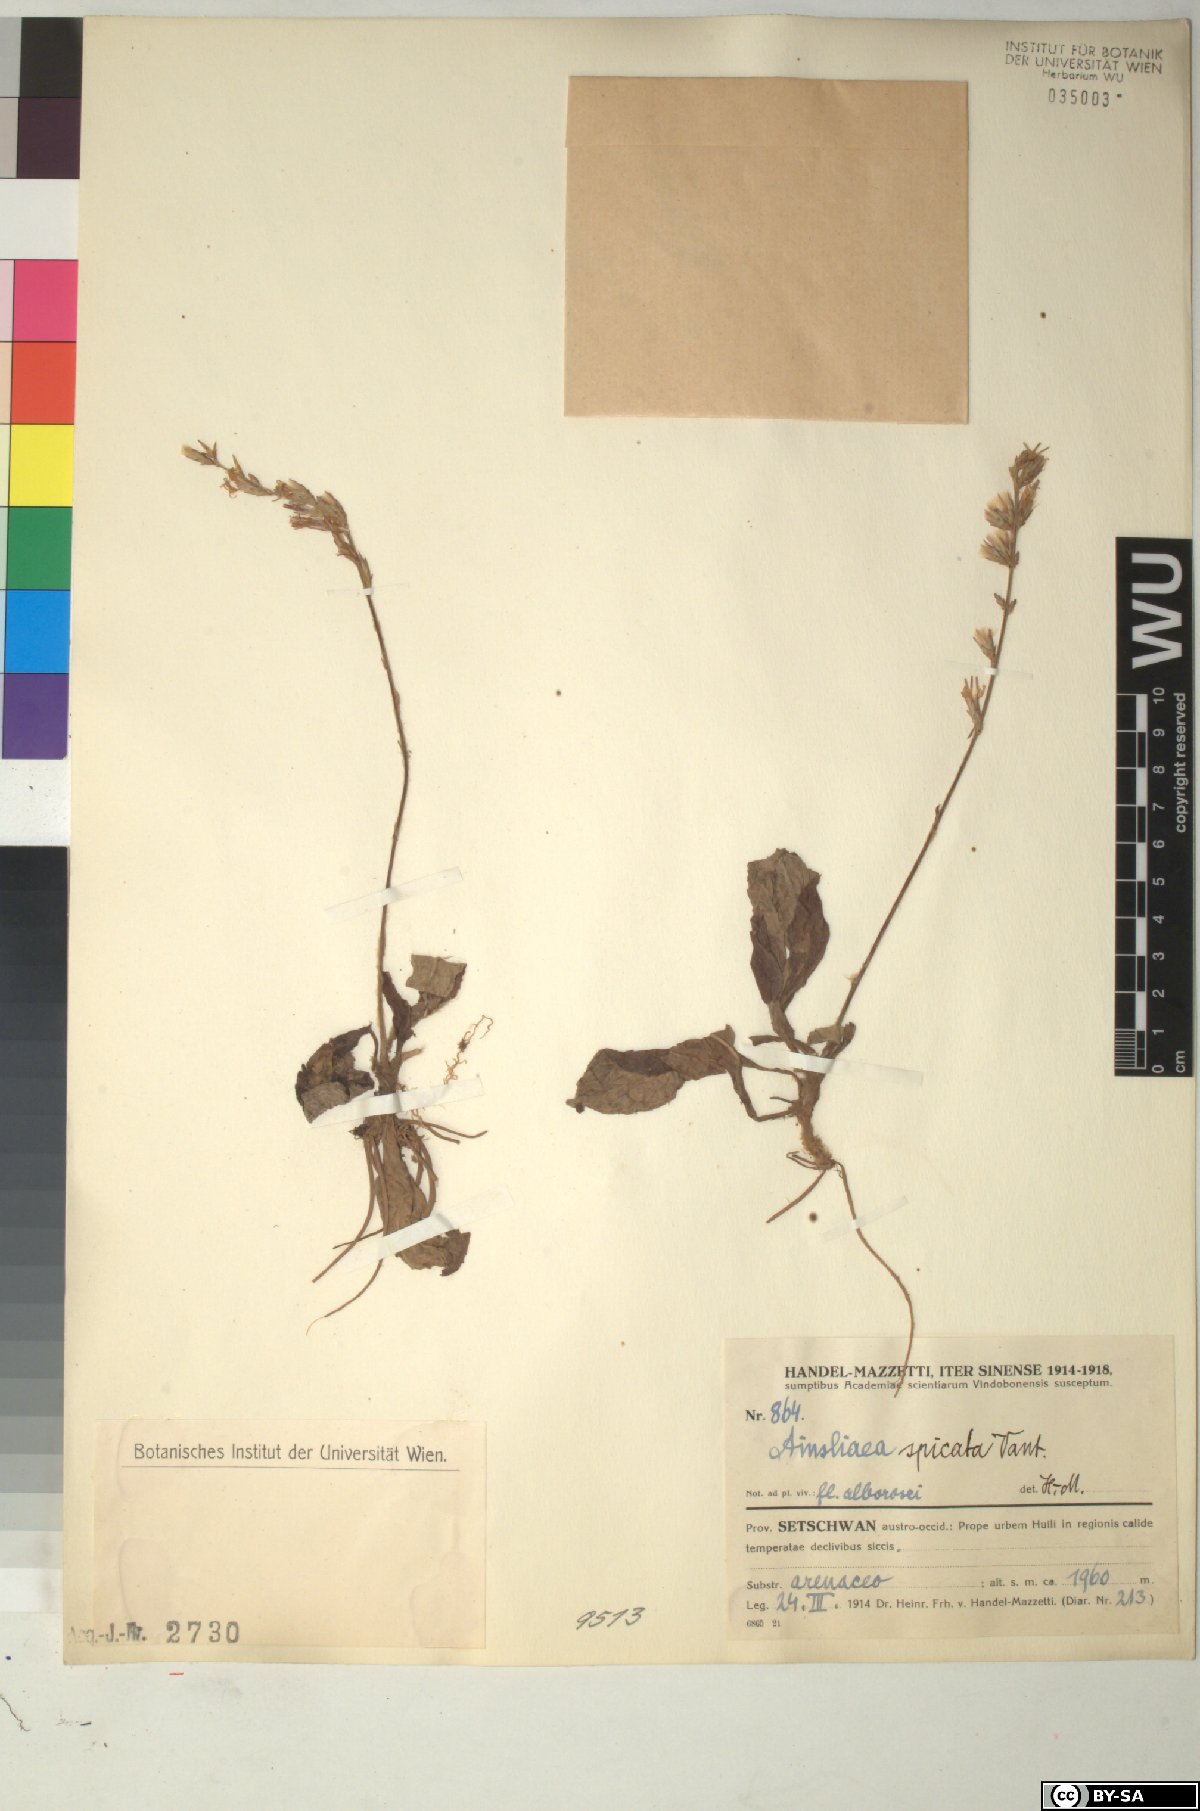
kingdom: Plantae
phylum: Tracheophyta
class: Magnoliopsida
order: Asterales
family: Asteraceae
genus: Ainsliaea
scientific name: Ainsliaea spicata
